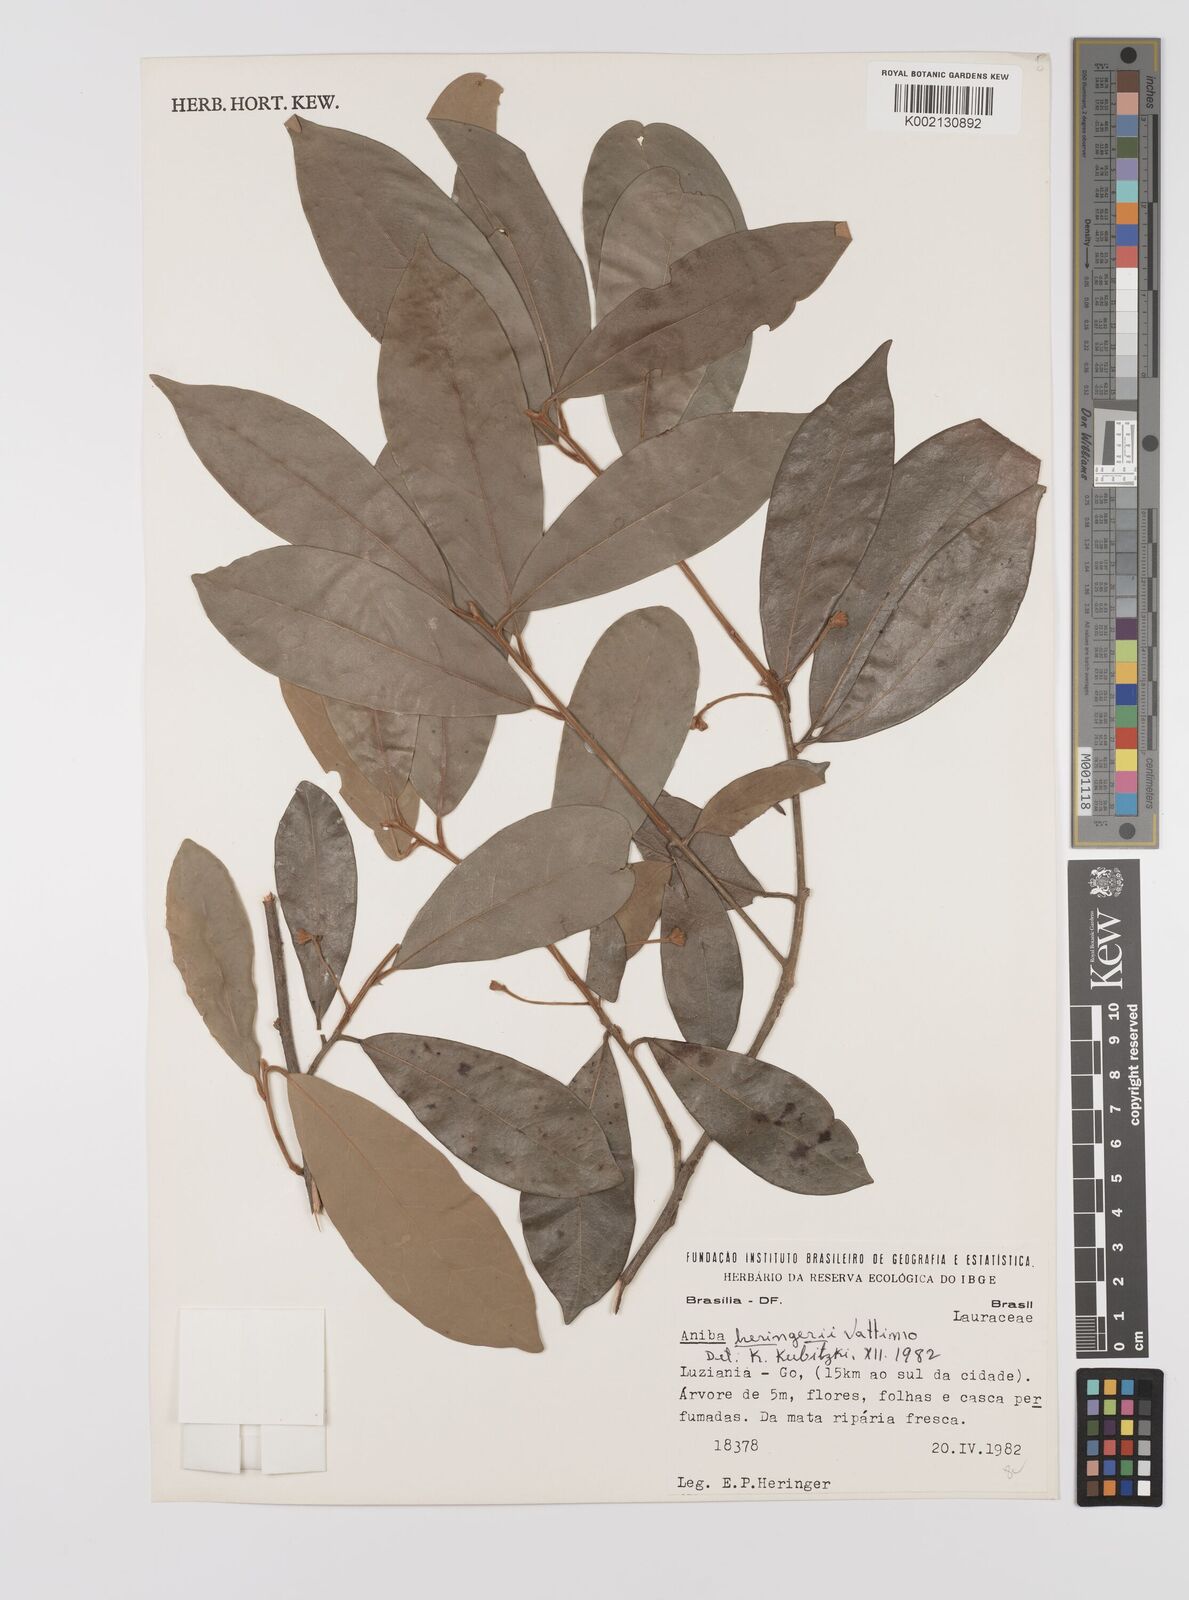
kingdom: Plantae
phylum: Tracheophyta
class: Magnoliopsida
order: Laurales
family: Lauraceae
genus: Aniba
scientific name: Aniba heringeri
